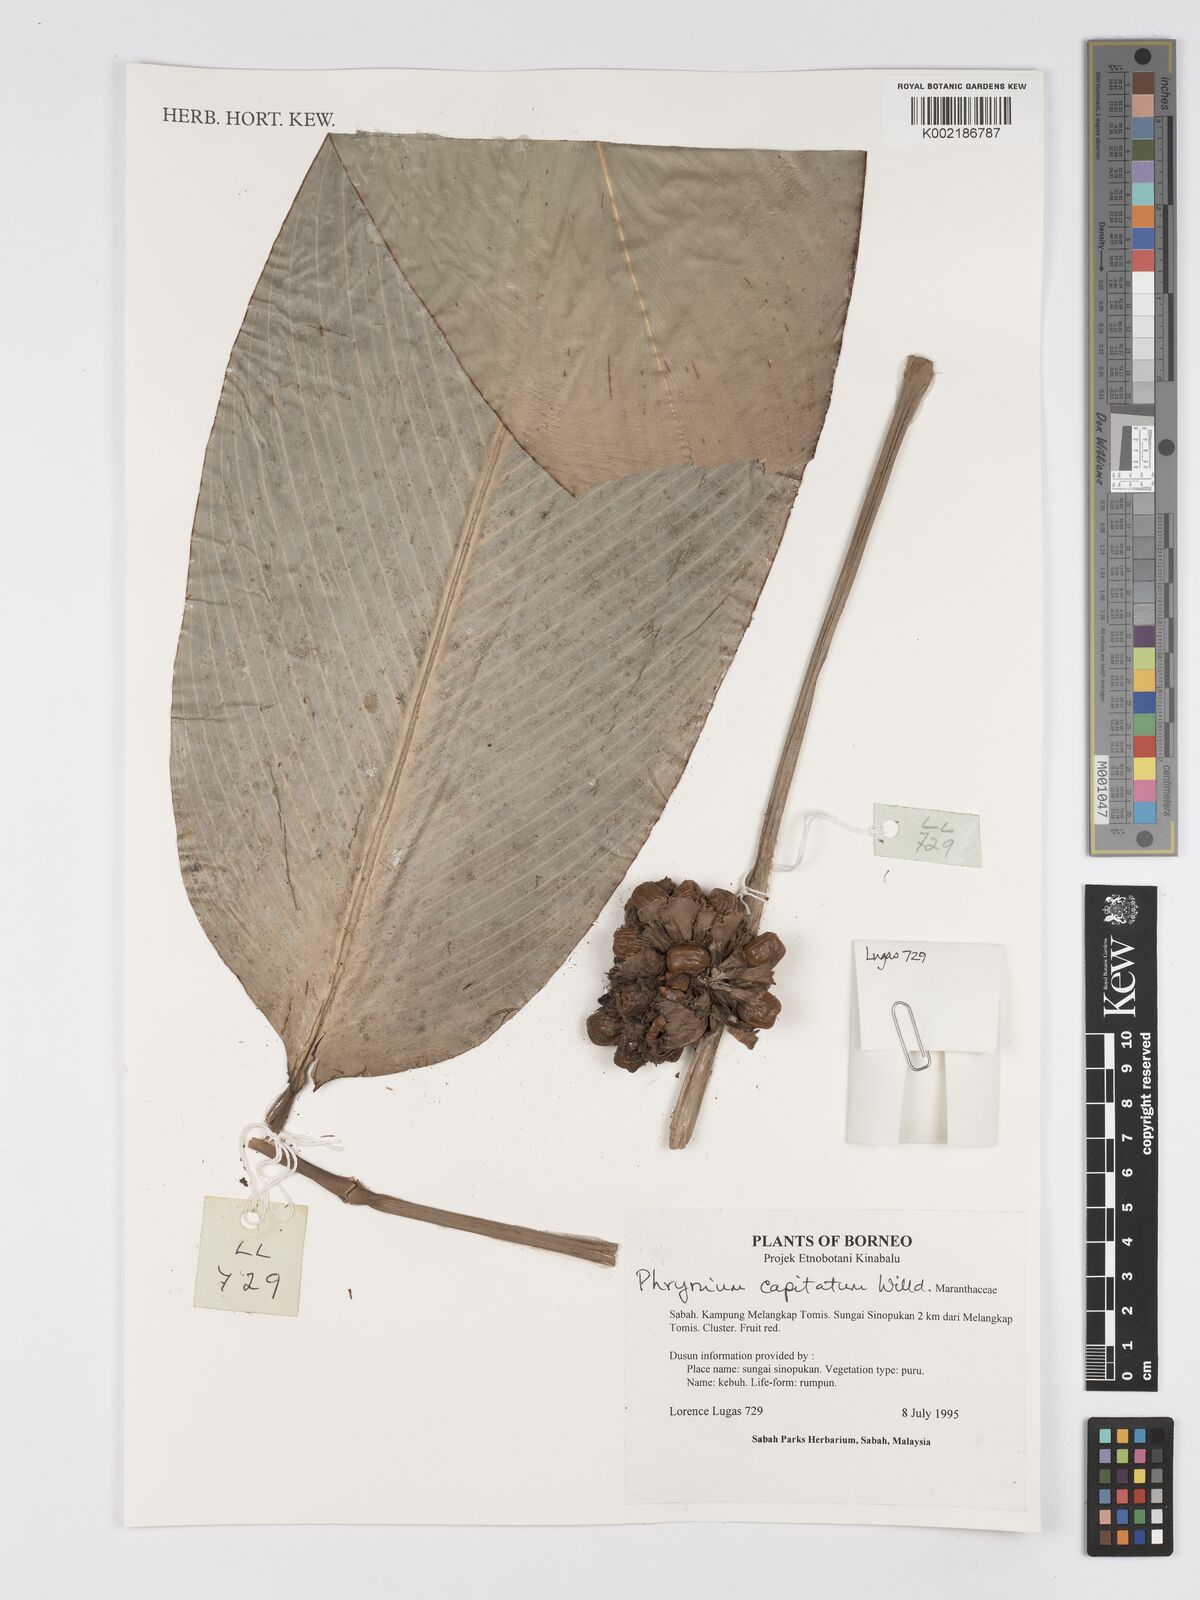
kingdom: Plantae
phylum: Tracheophyta
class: Liliopsida
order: Zingiberales
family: Marantaceae
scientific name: Marantaceae
